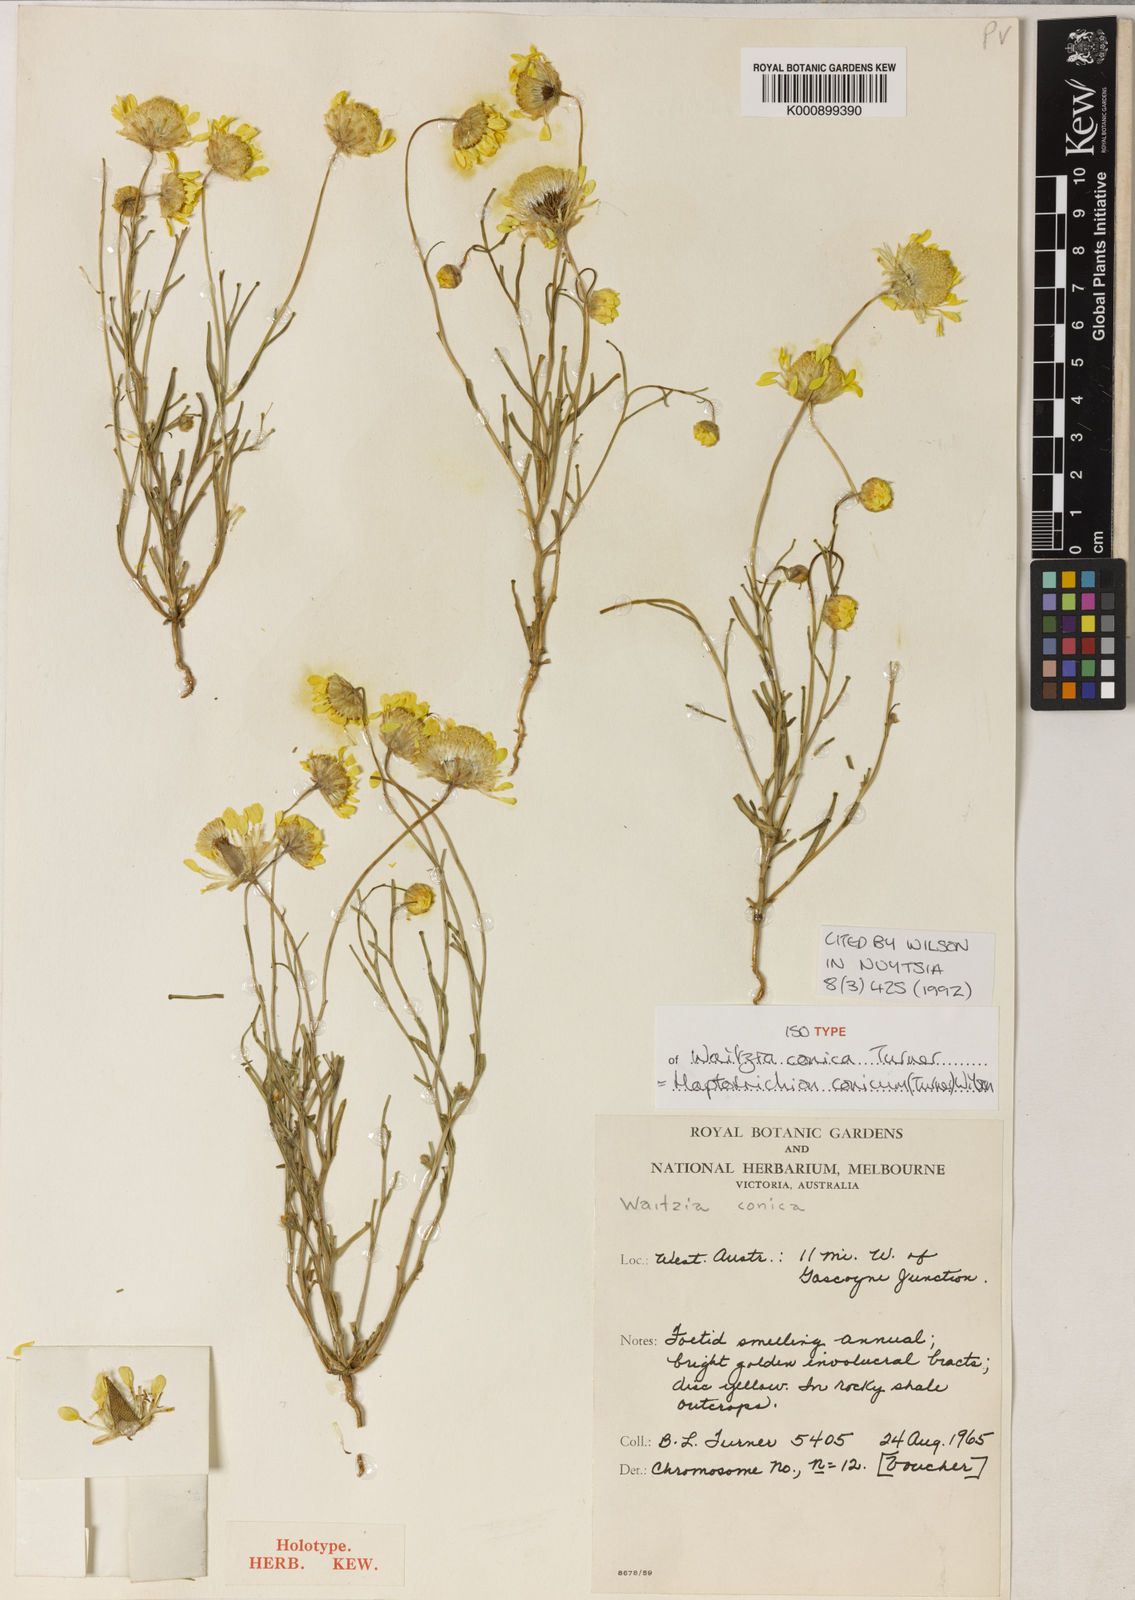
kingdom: Plantae
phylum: Tracheophyta
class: Magnoliopsida
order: Asterales
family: Asteraceae
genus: Haptotrichion
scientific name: Haptotrichion conicum
